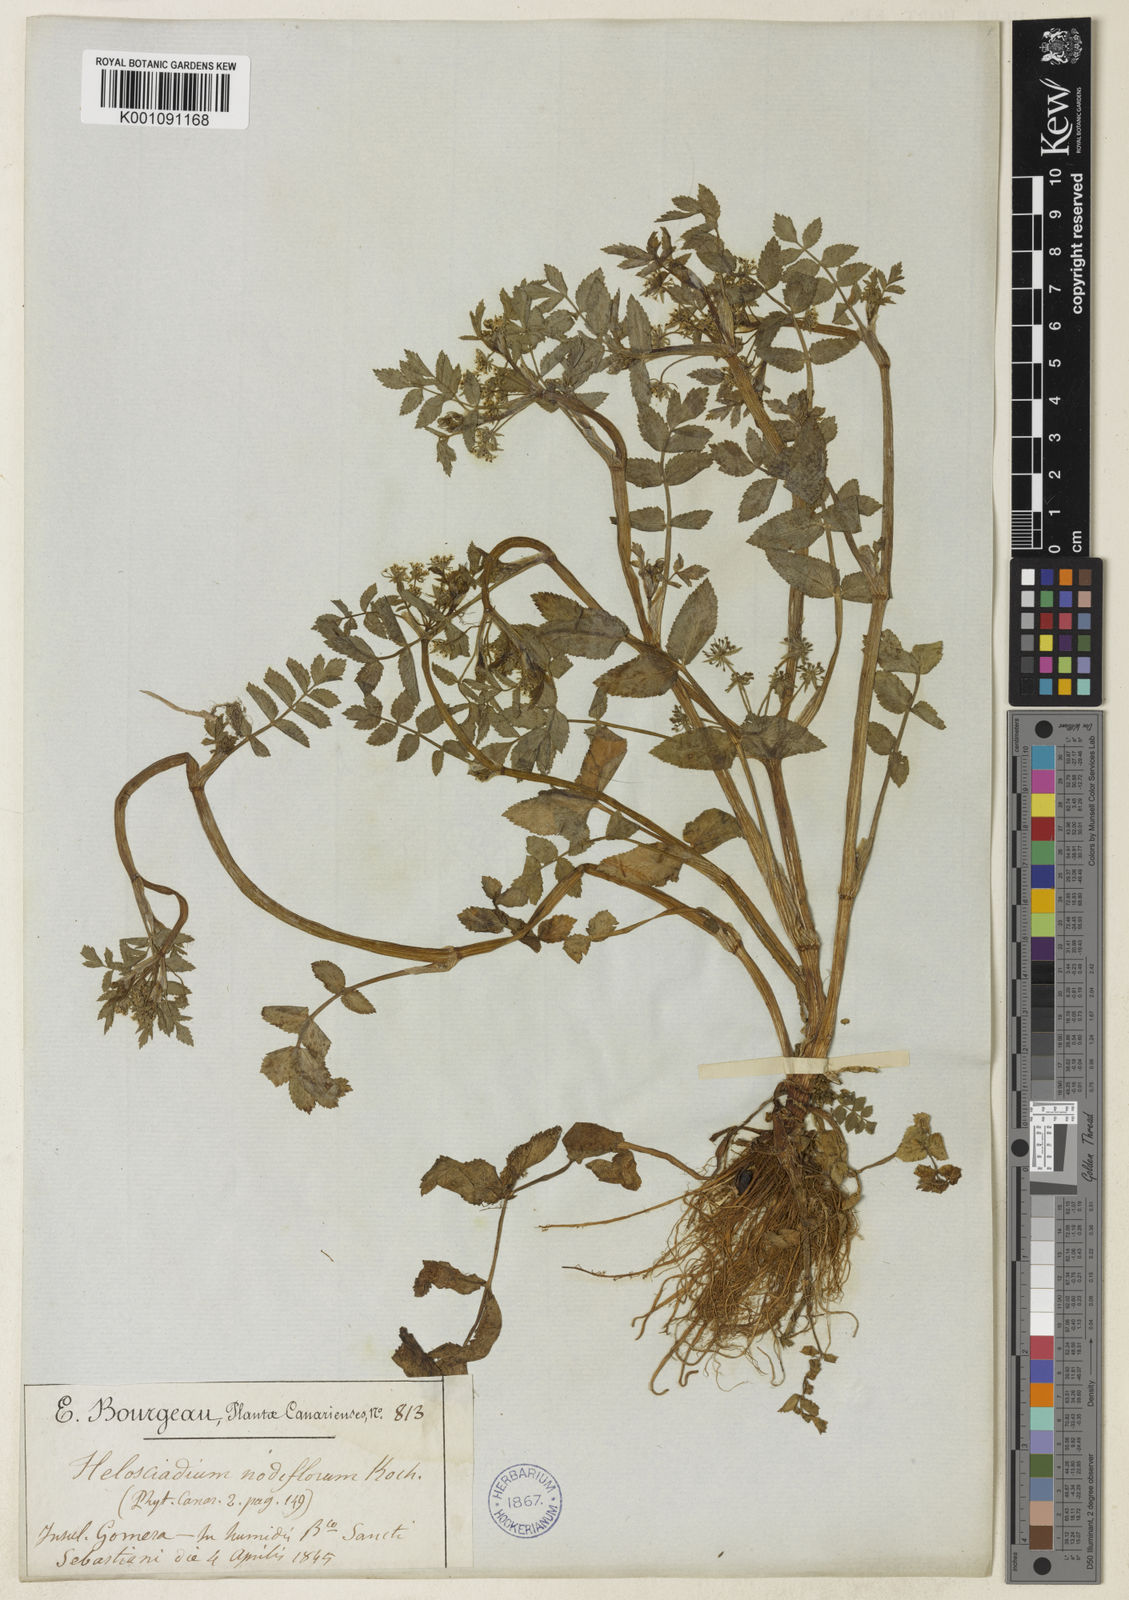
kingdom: Plantae
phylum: Tracheophyta
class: Magnoliopsida
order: Apiales
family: Apiaceae
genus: Helosciadium
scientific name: Helosciadium nodiflorum
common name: Fool's-watercress
